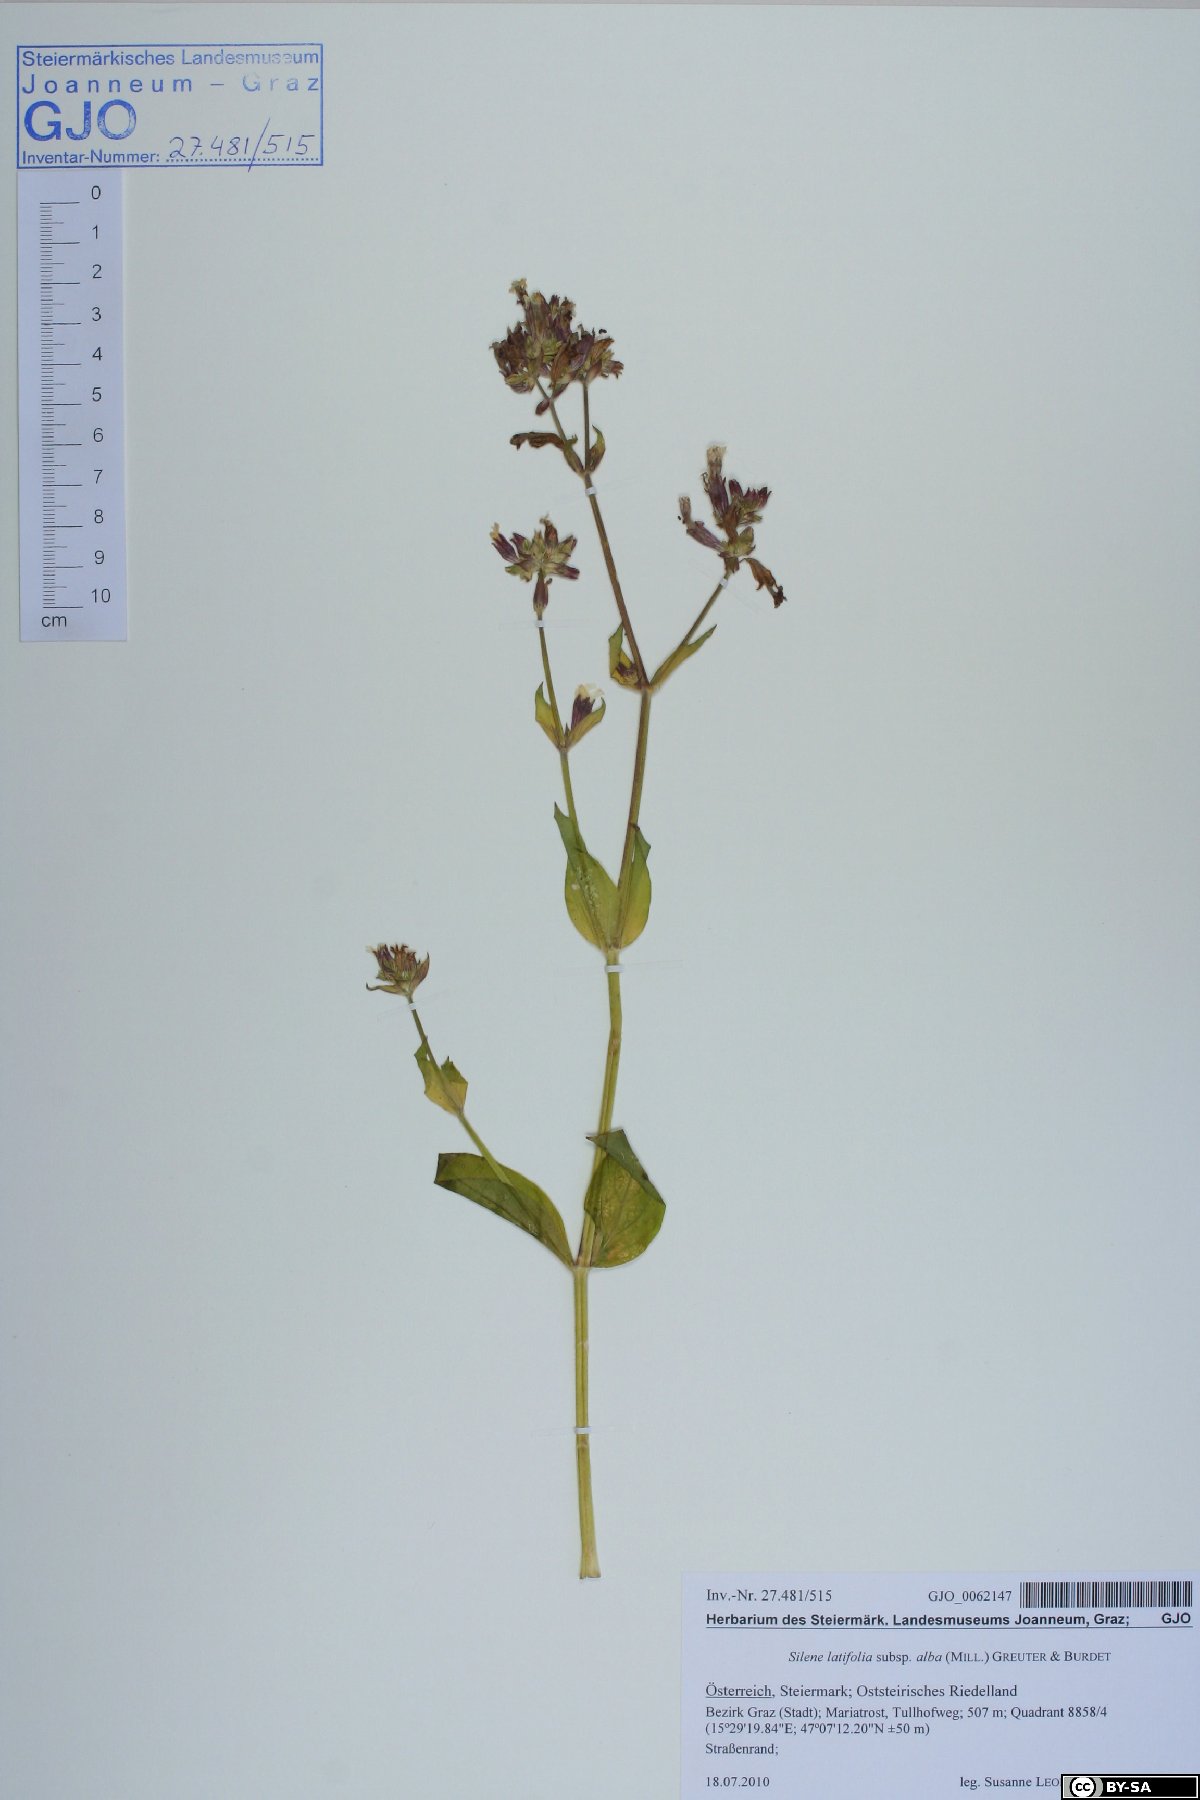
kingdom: Plantae
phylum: Tracheophyta
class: Magnoliopsida
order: Caryophyllales
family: Caryophyllaceae
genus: Silene
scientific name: Silene latifolia
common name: White campion
